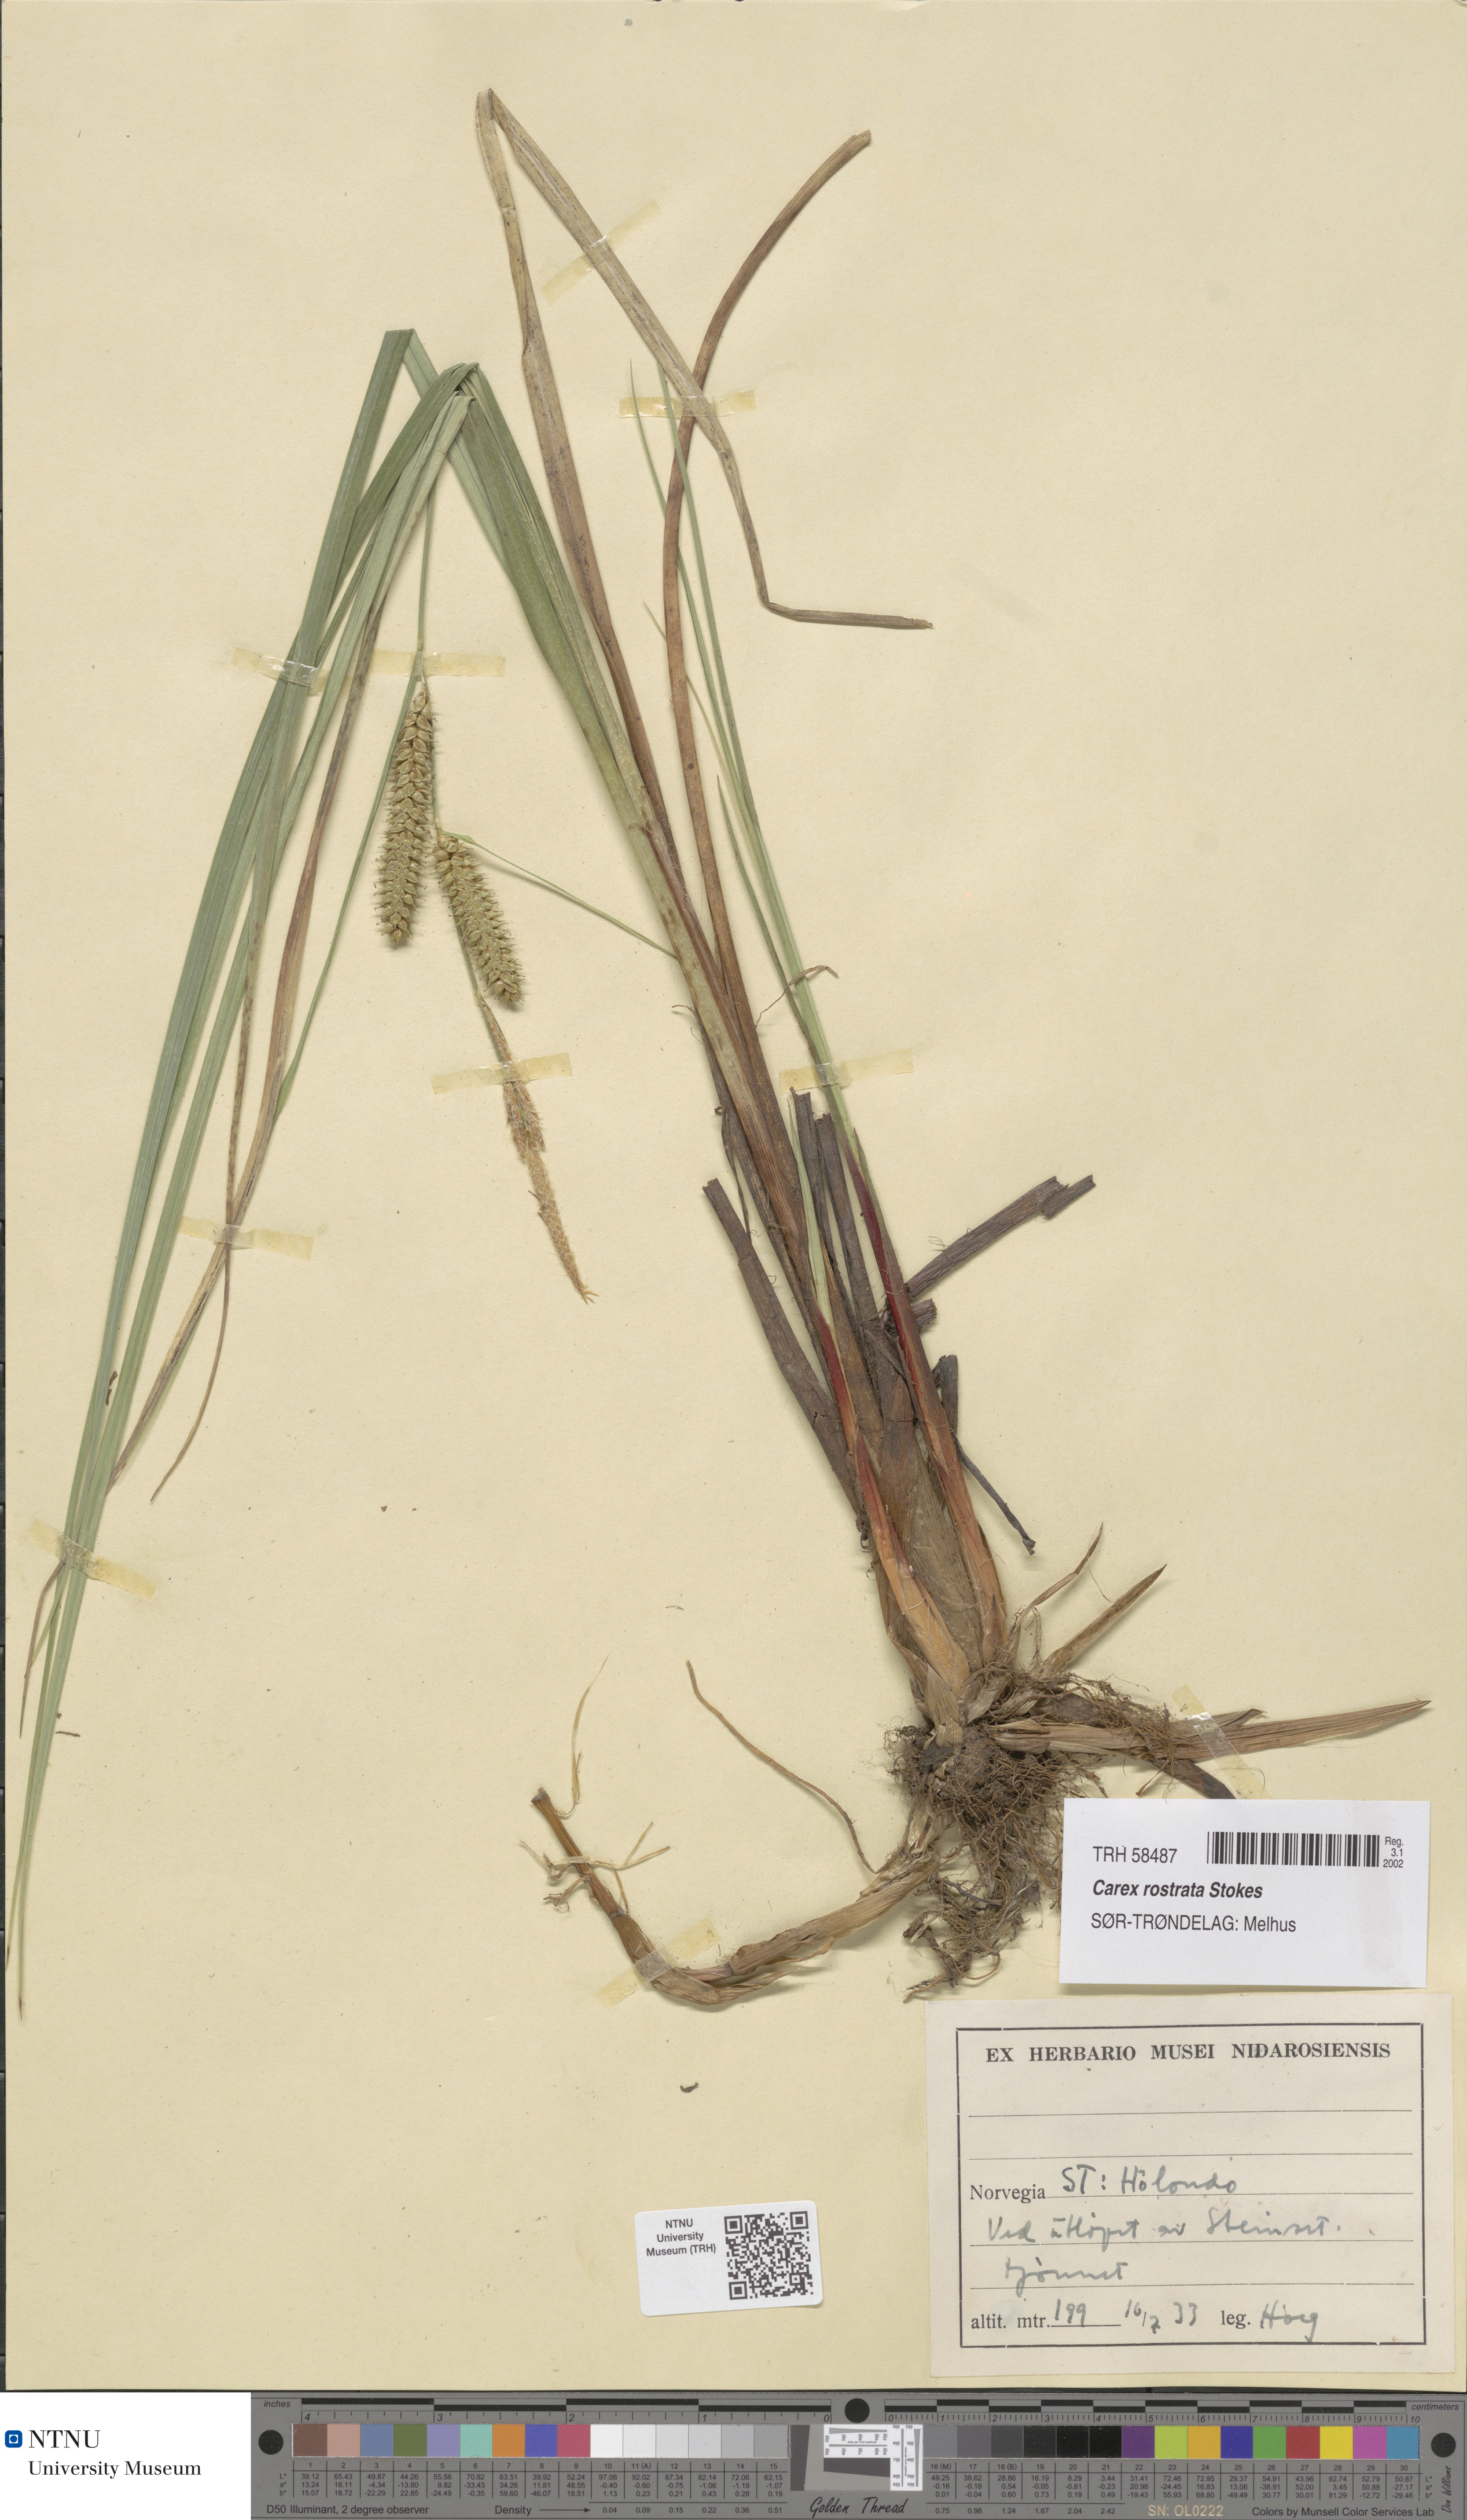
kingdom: Plantae
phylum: Tracheophyta
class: Liliopsida
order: Poales
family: Cyperaceae
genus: Carex
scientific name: Carex rostrata
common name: Bottle sedge
